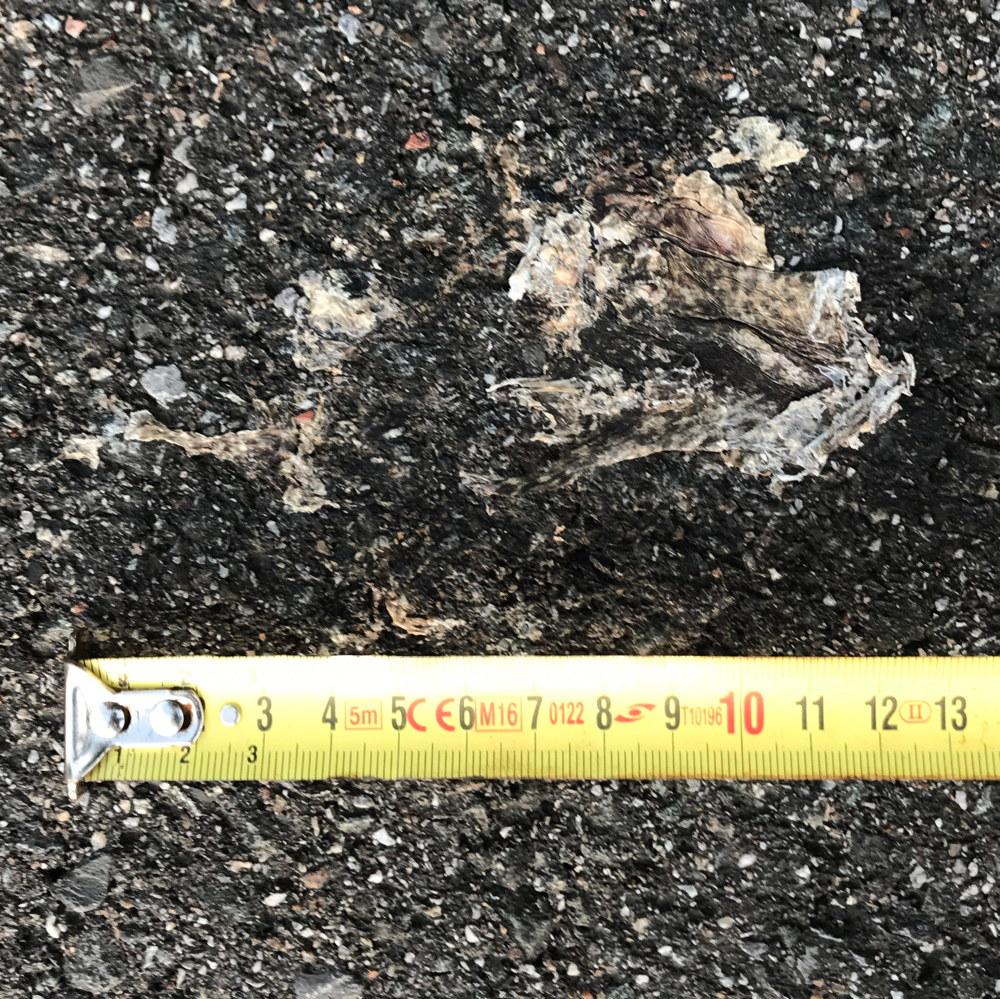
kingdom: Animalia
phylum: Chordata
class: Amphibia
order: Anura
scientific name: Anura
